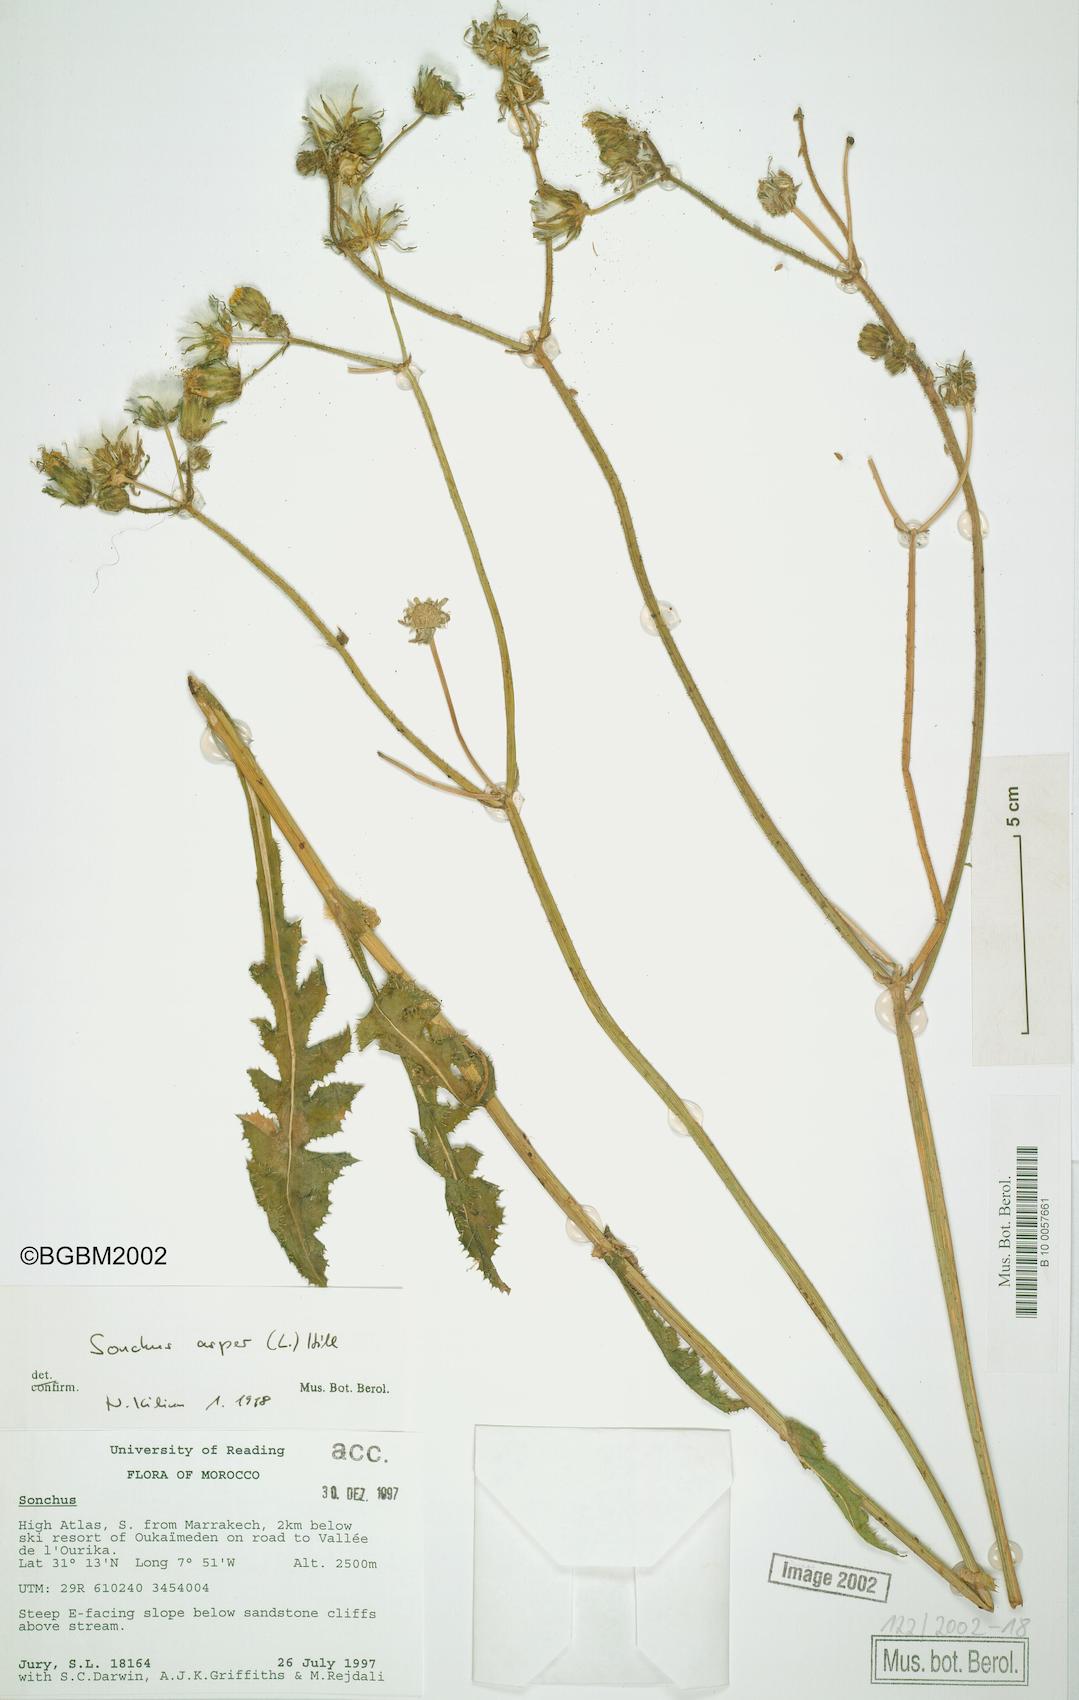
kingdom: Plantae
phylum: Tracheophyta
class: Magnoliopsida
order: Asterales
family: Asteraceae
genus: Sonchus
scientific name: Sonchus asper
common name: Prickly sow-thistle
